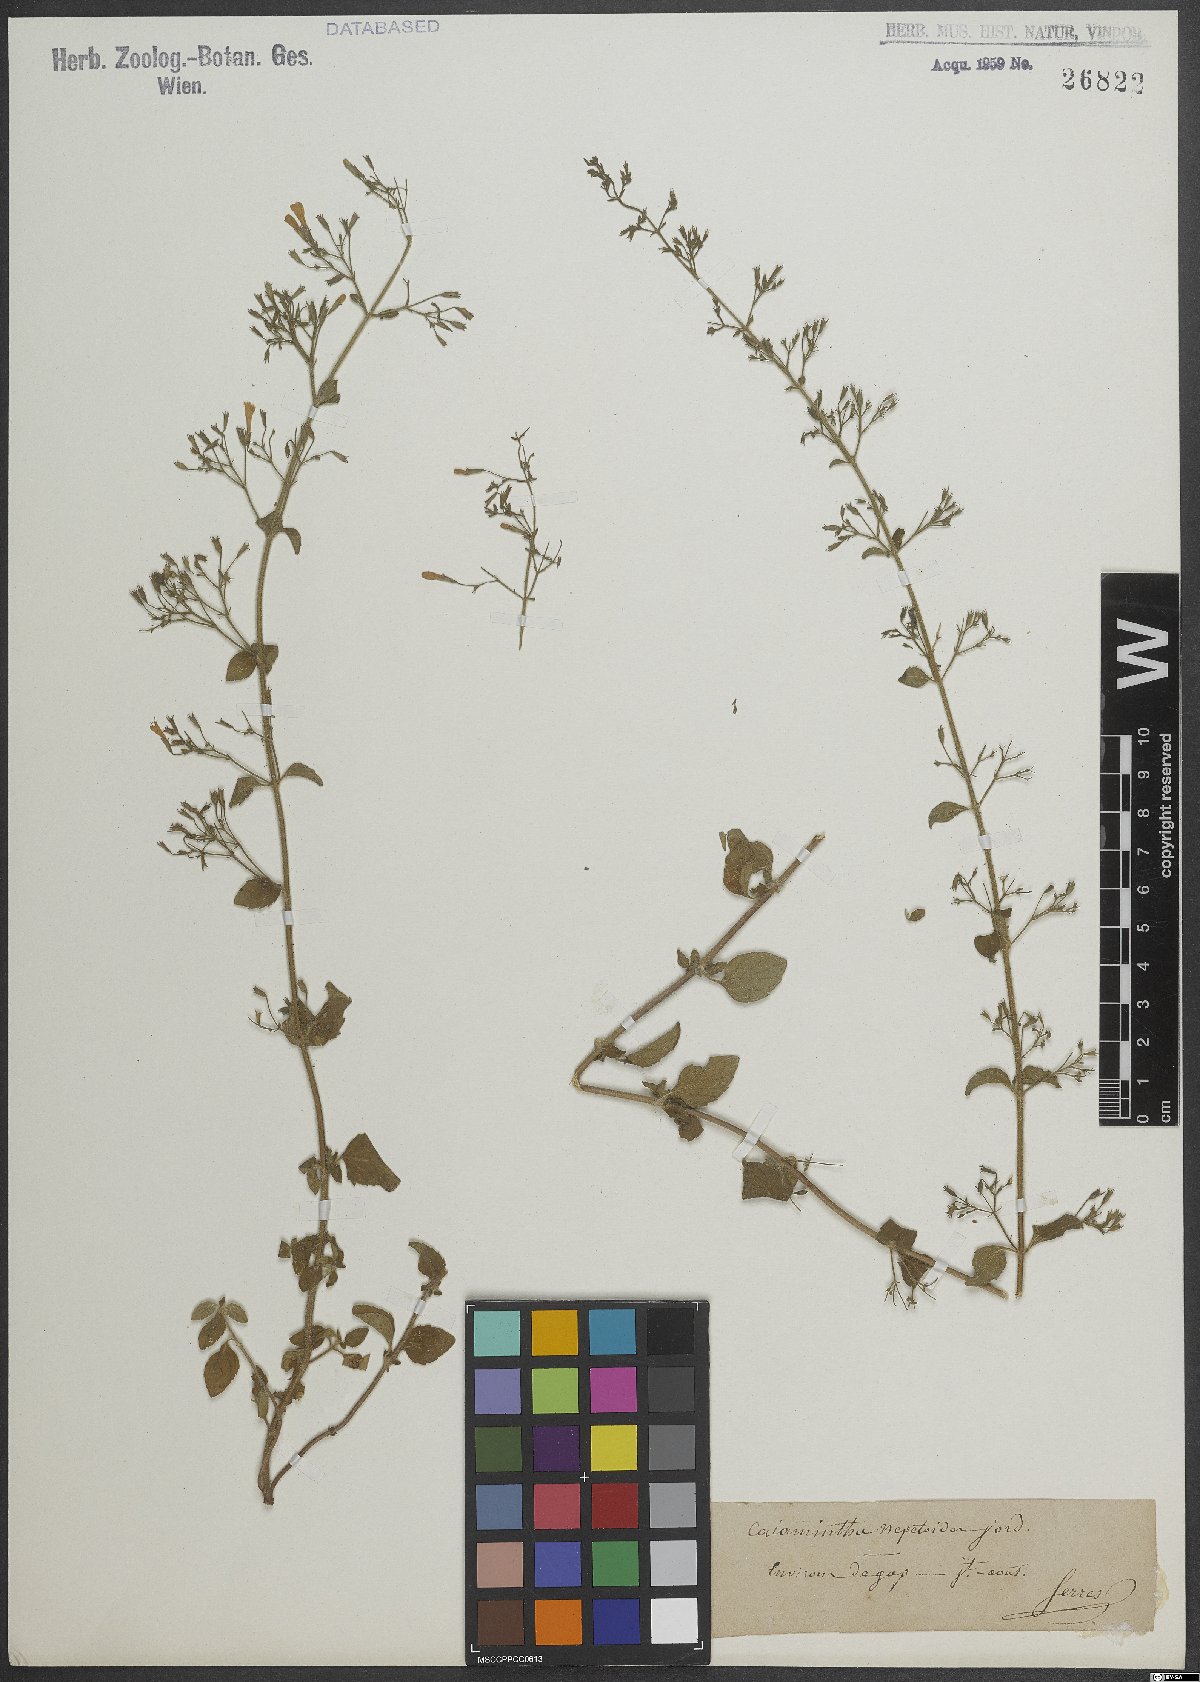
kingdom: Plantae
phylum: Tracheophyta
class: Magnoliopsida
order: Lamiales
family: Lamiaceae
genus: Clinopodium
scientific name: Clinopodium nepeta
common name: Lesser calamint
